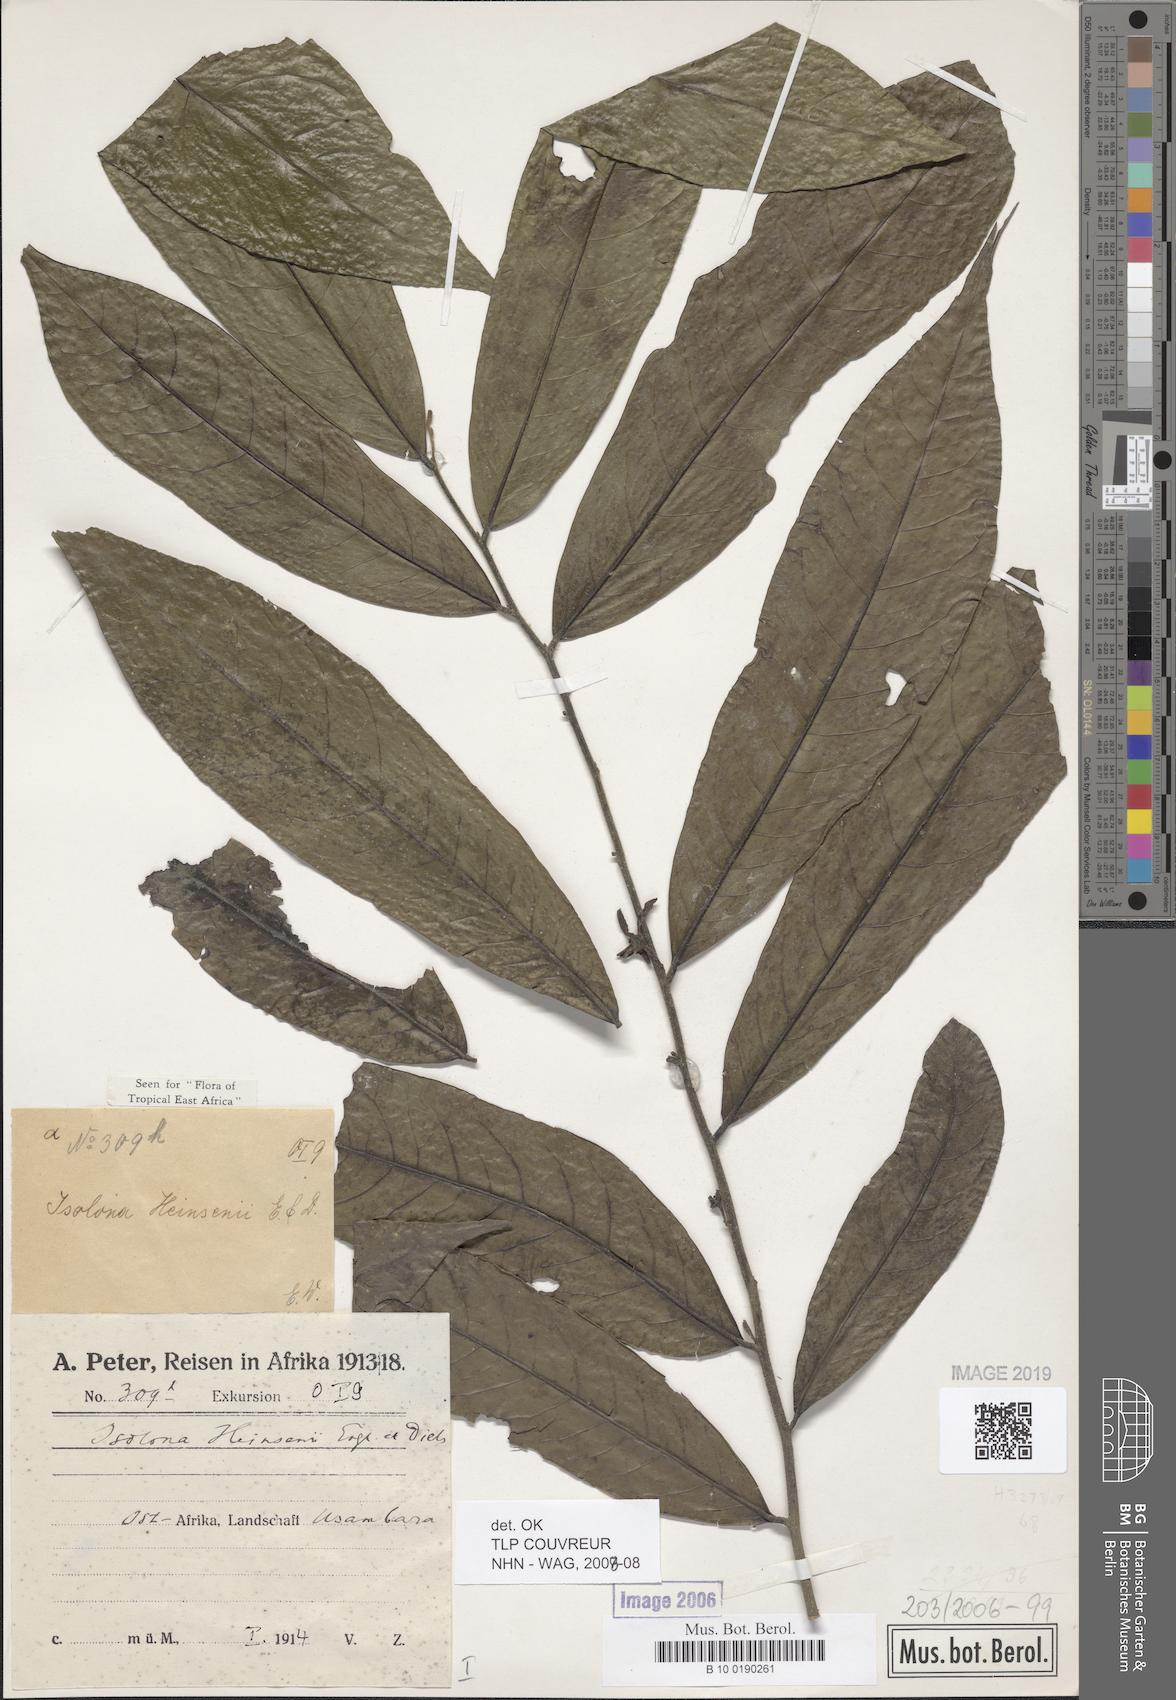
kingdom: Plantae
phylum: Tracheophyta
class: Magnoliopsida
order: Magnoliales
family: Annonaceae
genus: Isolona
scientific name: Isolona heinsenii
